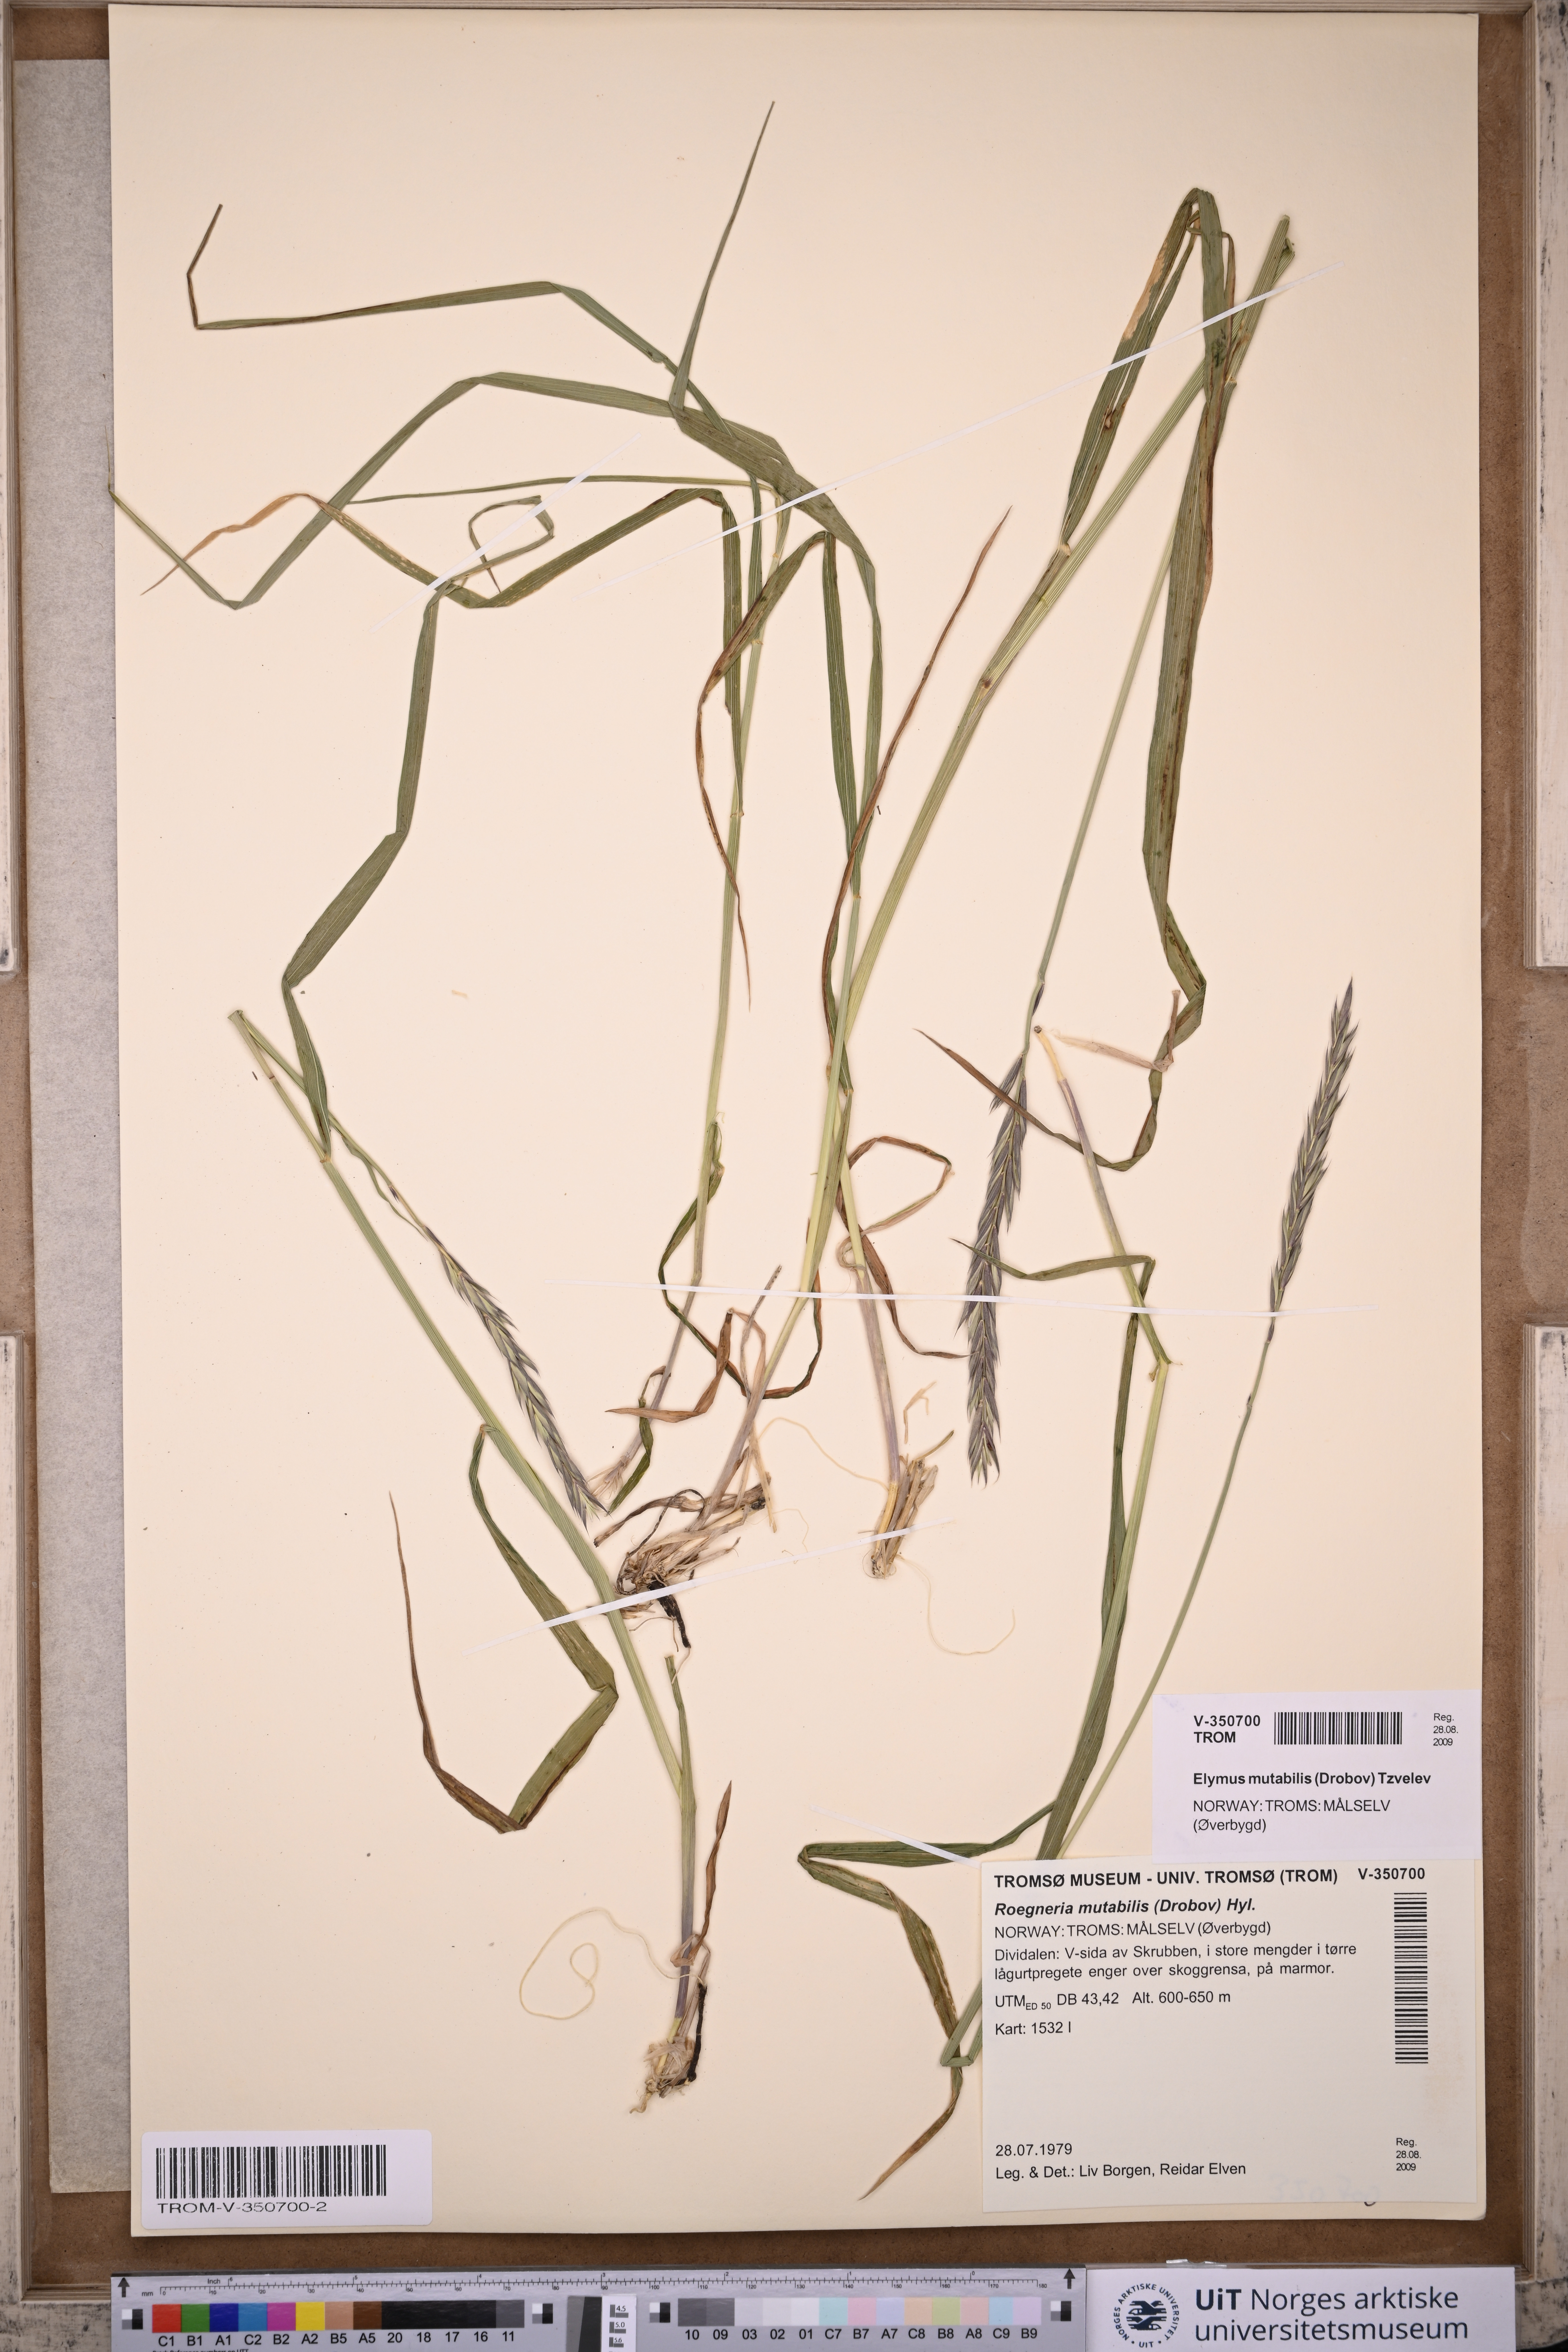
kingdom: Plantae
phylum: Tracheophyta
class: Liliopsida
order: Poales
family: Poaceae
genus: Elymus
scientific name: Elymus mutabilis
